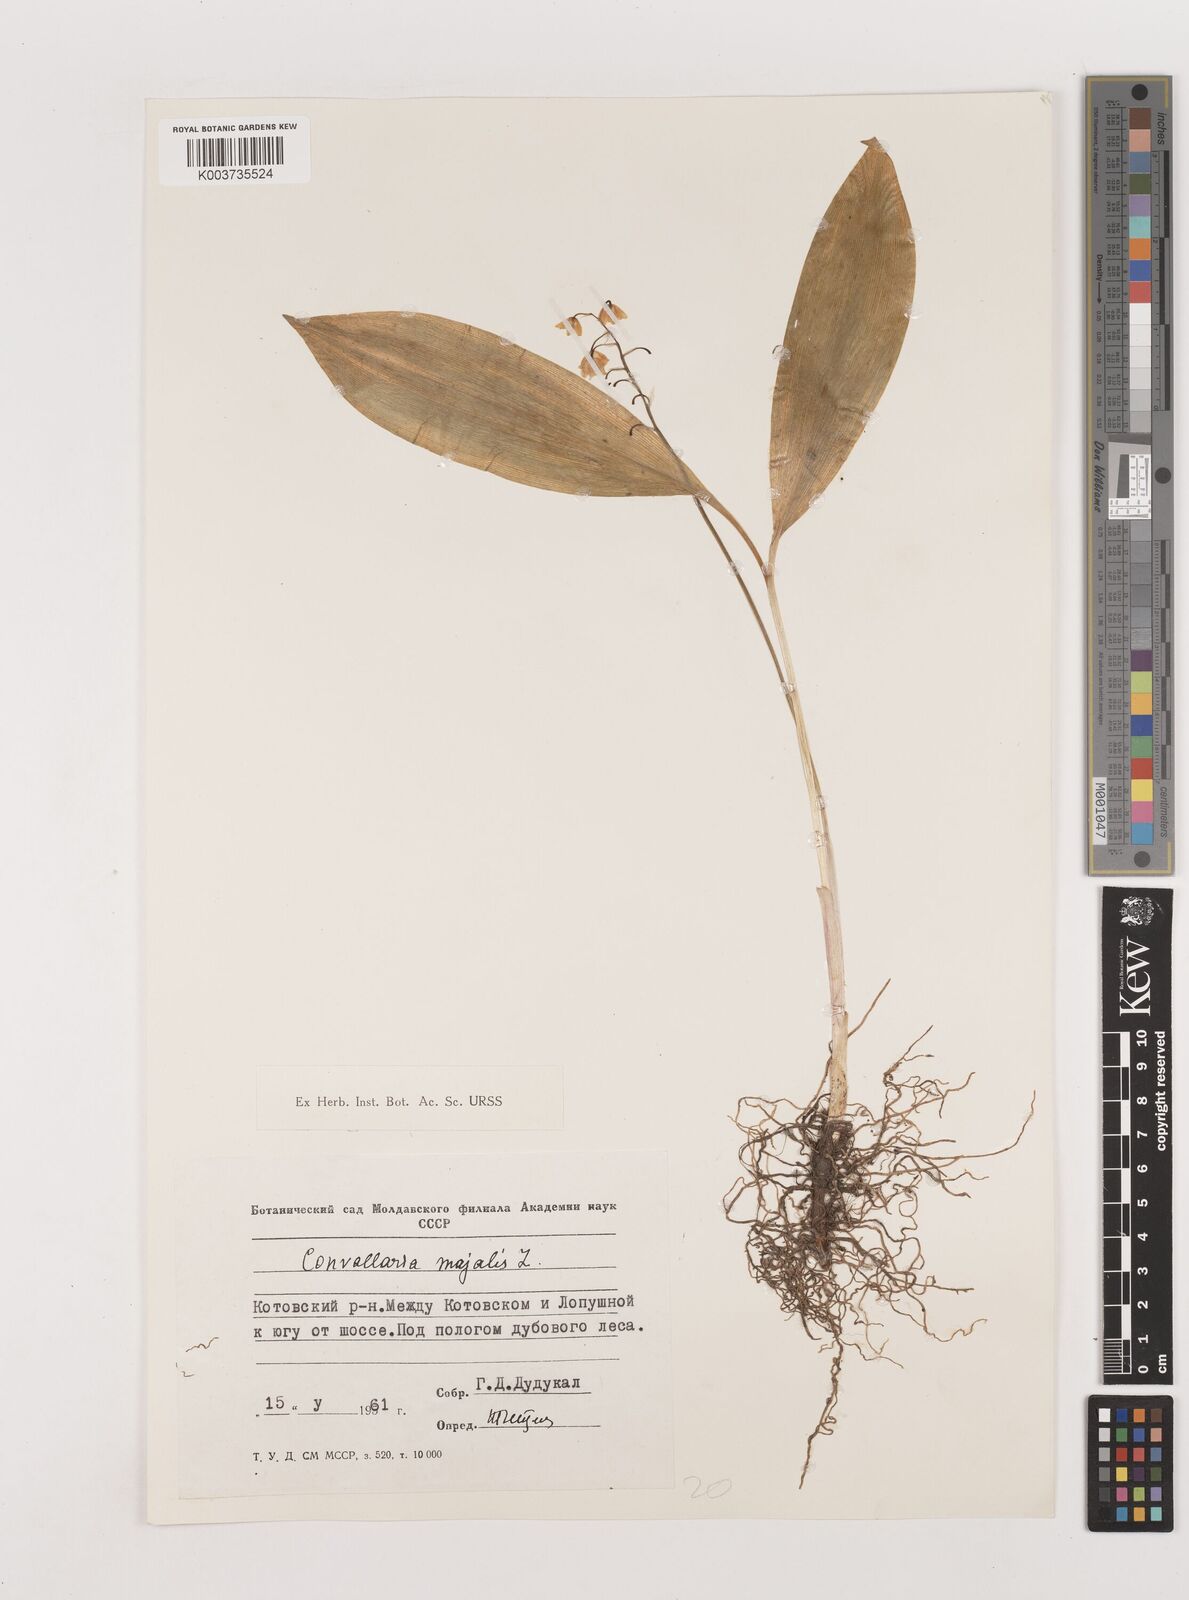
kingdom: Plantae
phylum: Tracheophyta
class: Liliopsida
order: Asparagales
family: Asparagaceae
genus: Convallaria
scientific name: Convallaria majalis
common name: Lily-of-the-valley
